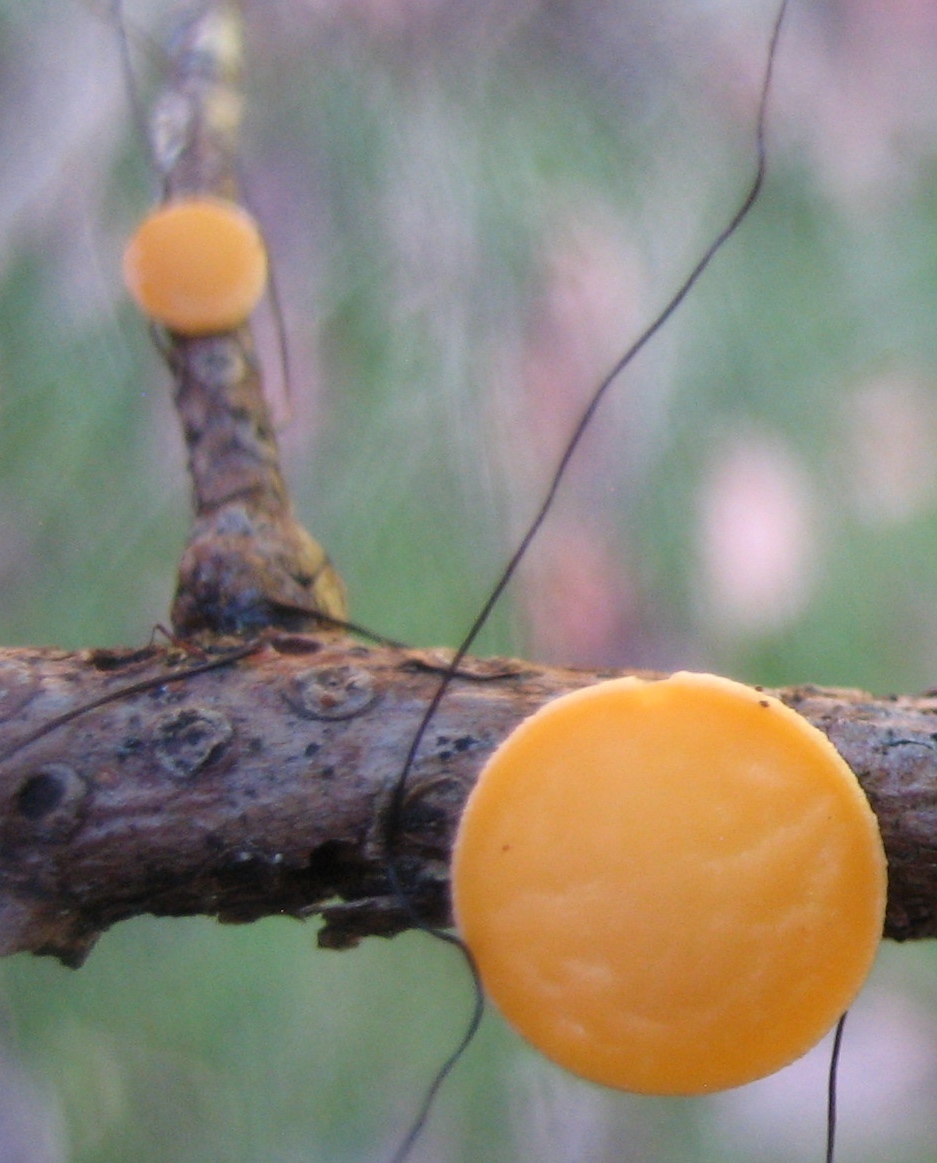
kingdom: Fungi
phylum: Ascomycota
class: Pezizomycetes
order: Pezizales
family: Sarcoscyphaceae
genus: Pithya
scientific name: Pithya vulgaris
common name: stor dukatbæger
